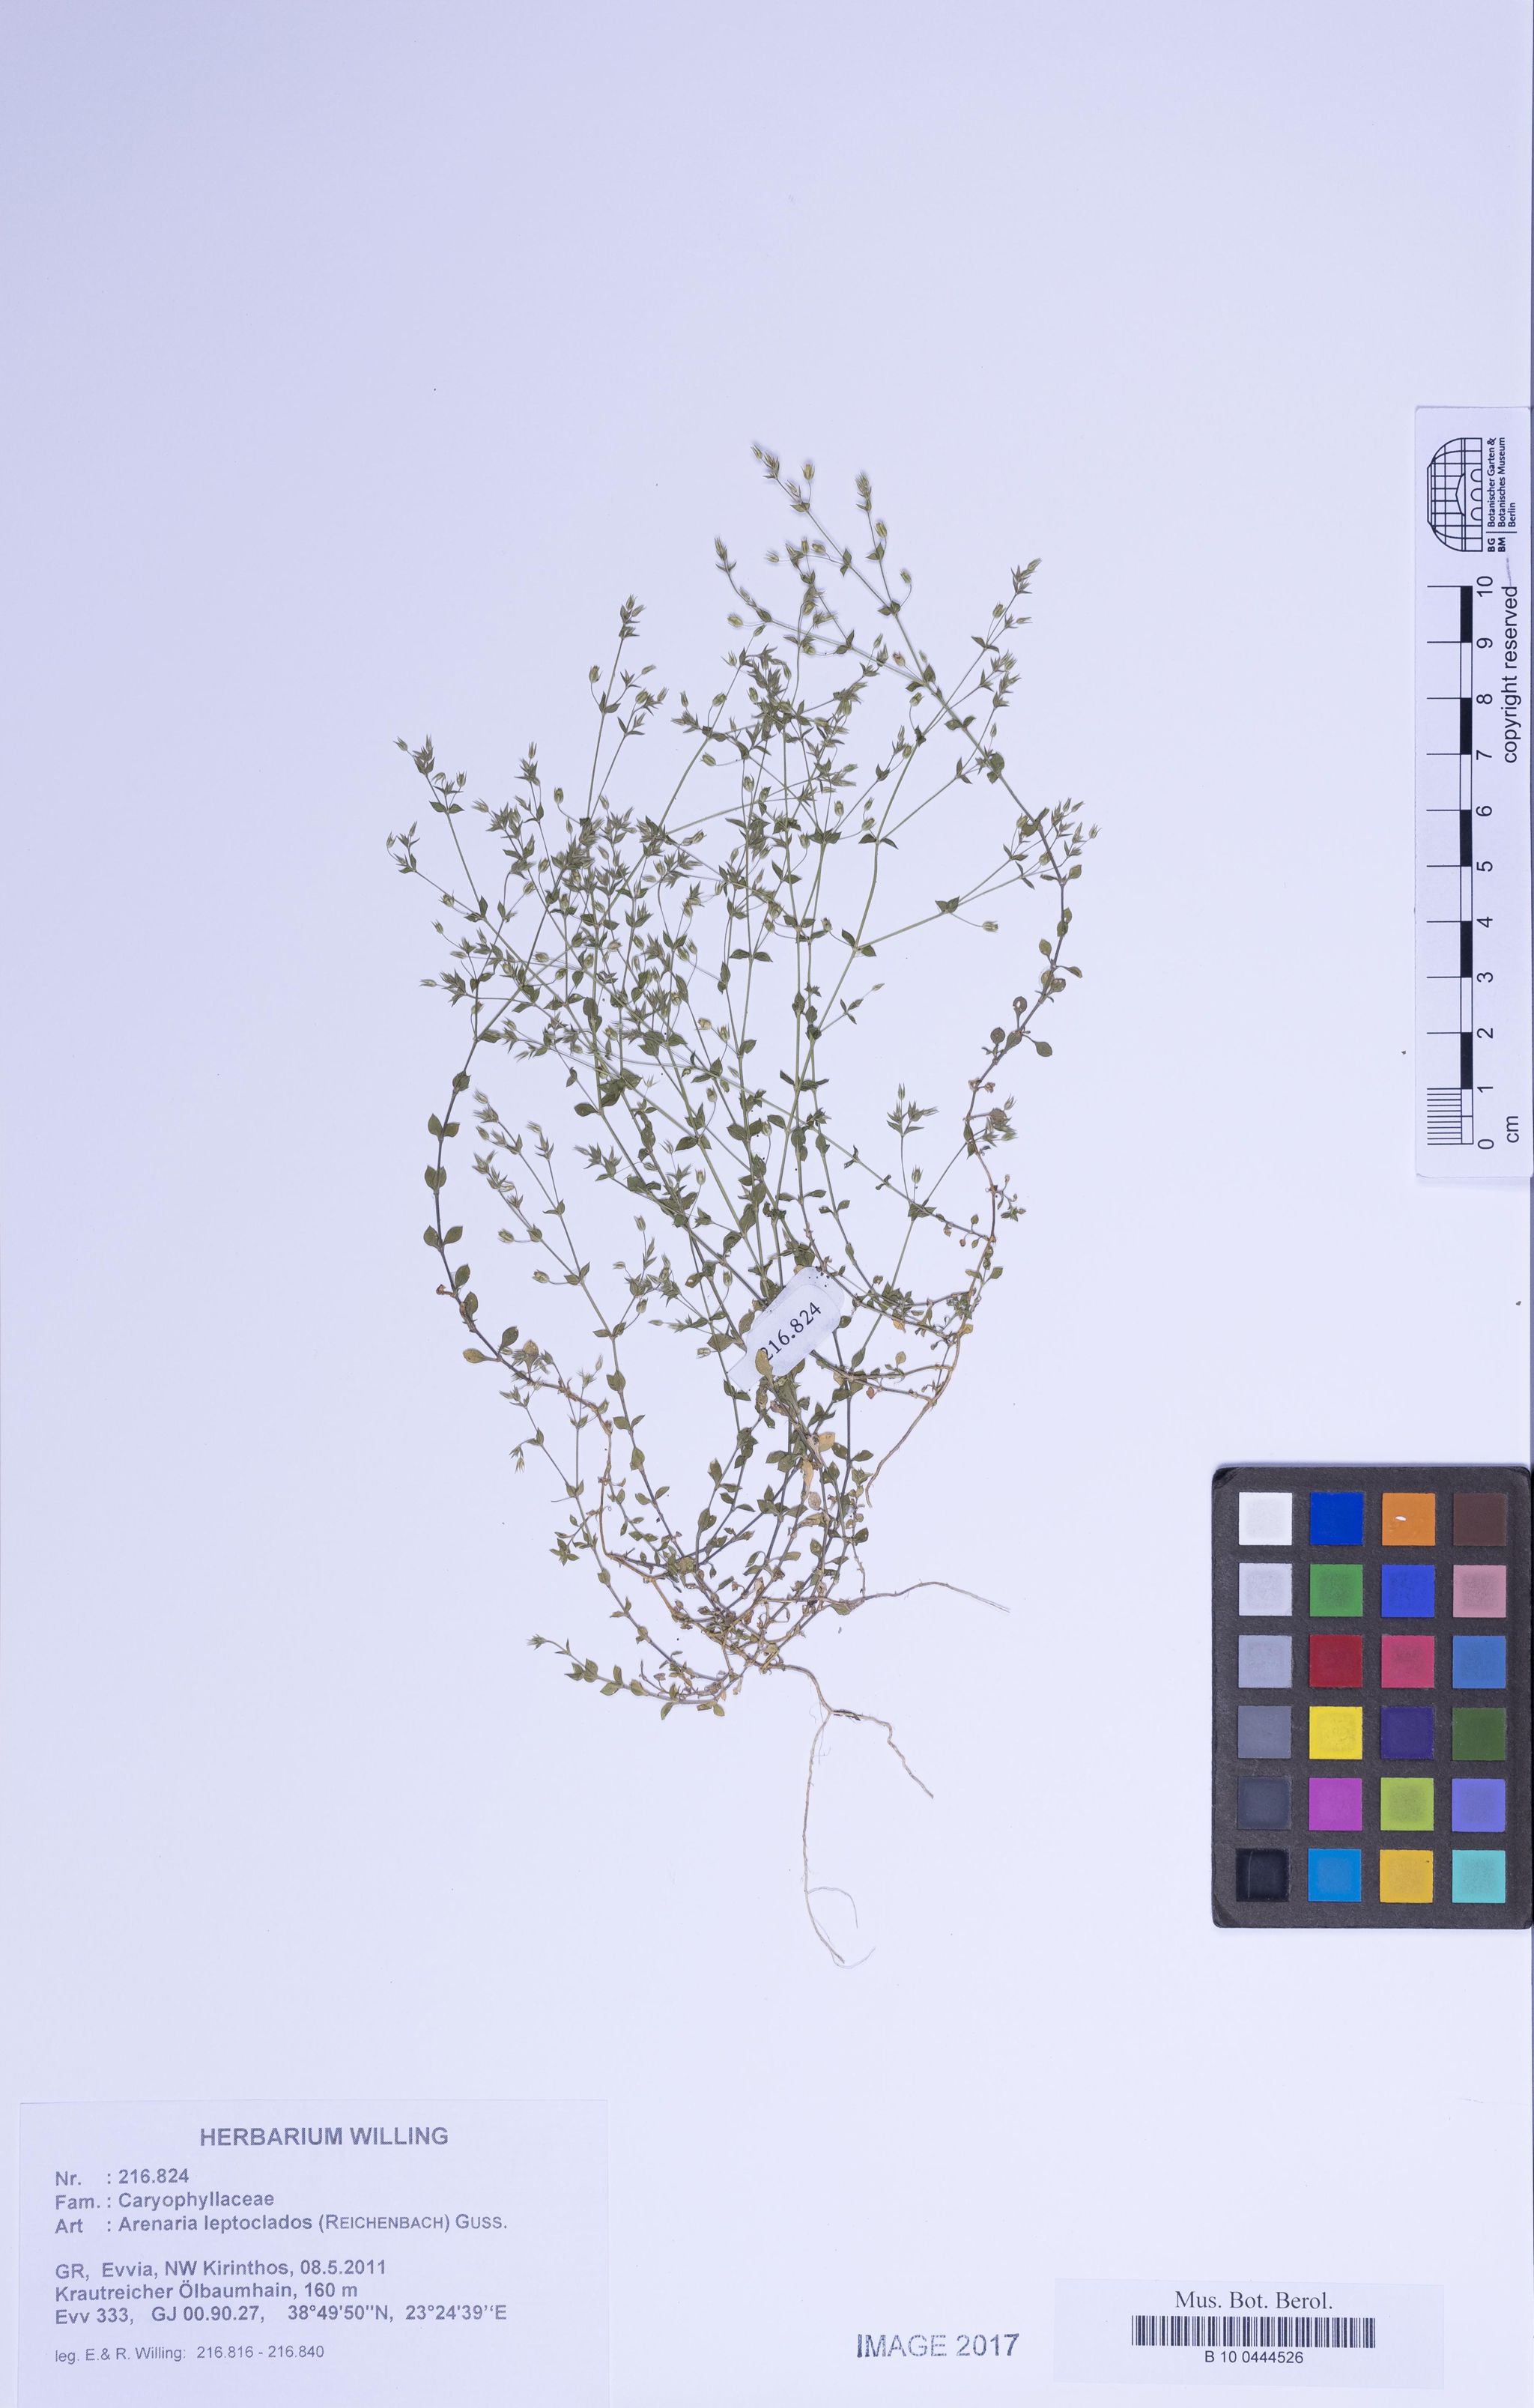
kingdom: Plantae
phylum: Tracheophyta
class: Magnoliopsida
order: Caryophyllales
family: Caryophyllaceae
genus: Arenaria
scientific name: Arenaria leptoclados
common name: Thyme-leaved sandwort
